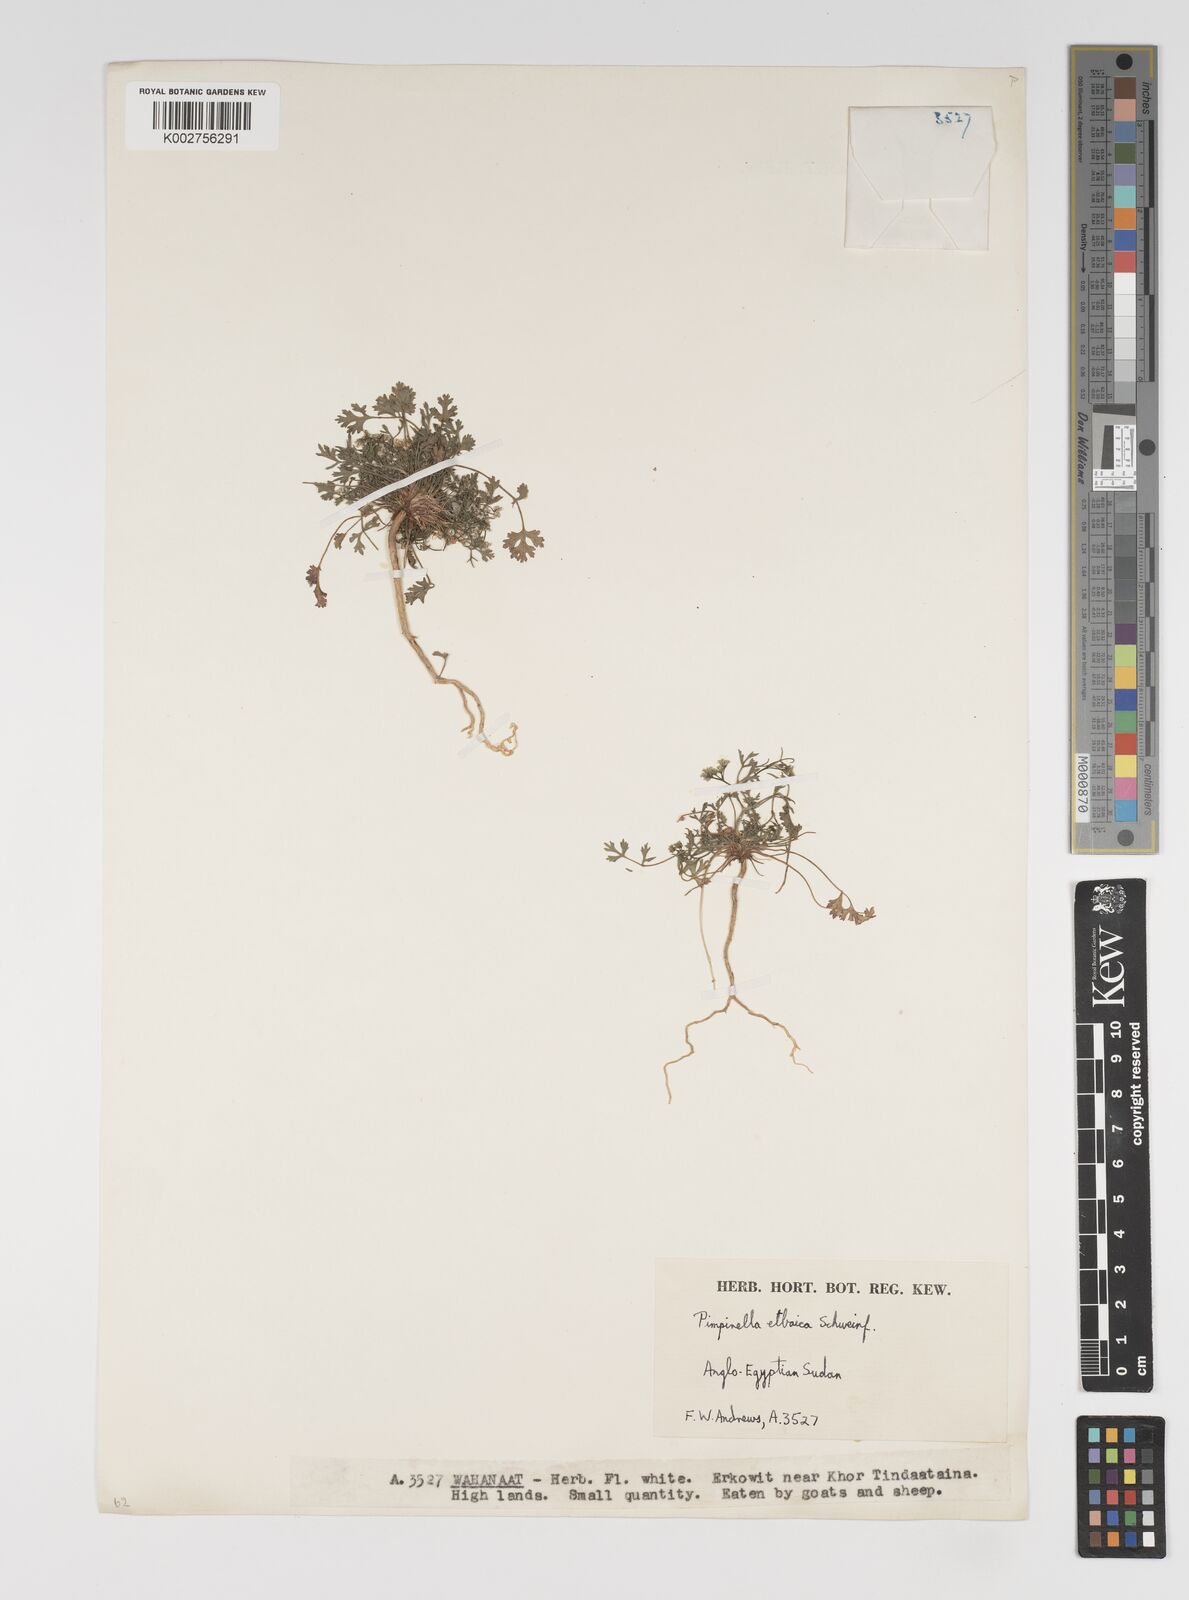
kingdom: Plantae
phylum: Tracheophyta
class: Magnoliopsida
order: Apiales
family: Apiaceae
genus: Pimpinella
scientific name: Pimpinella etbaica
